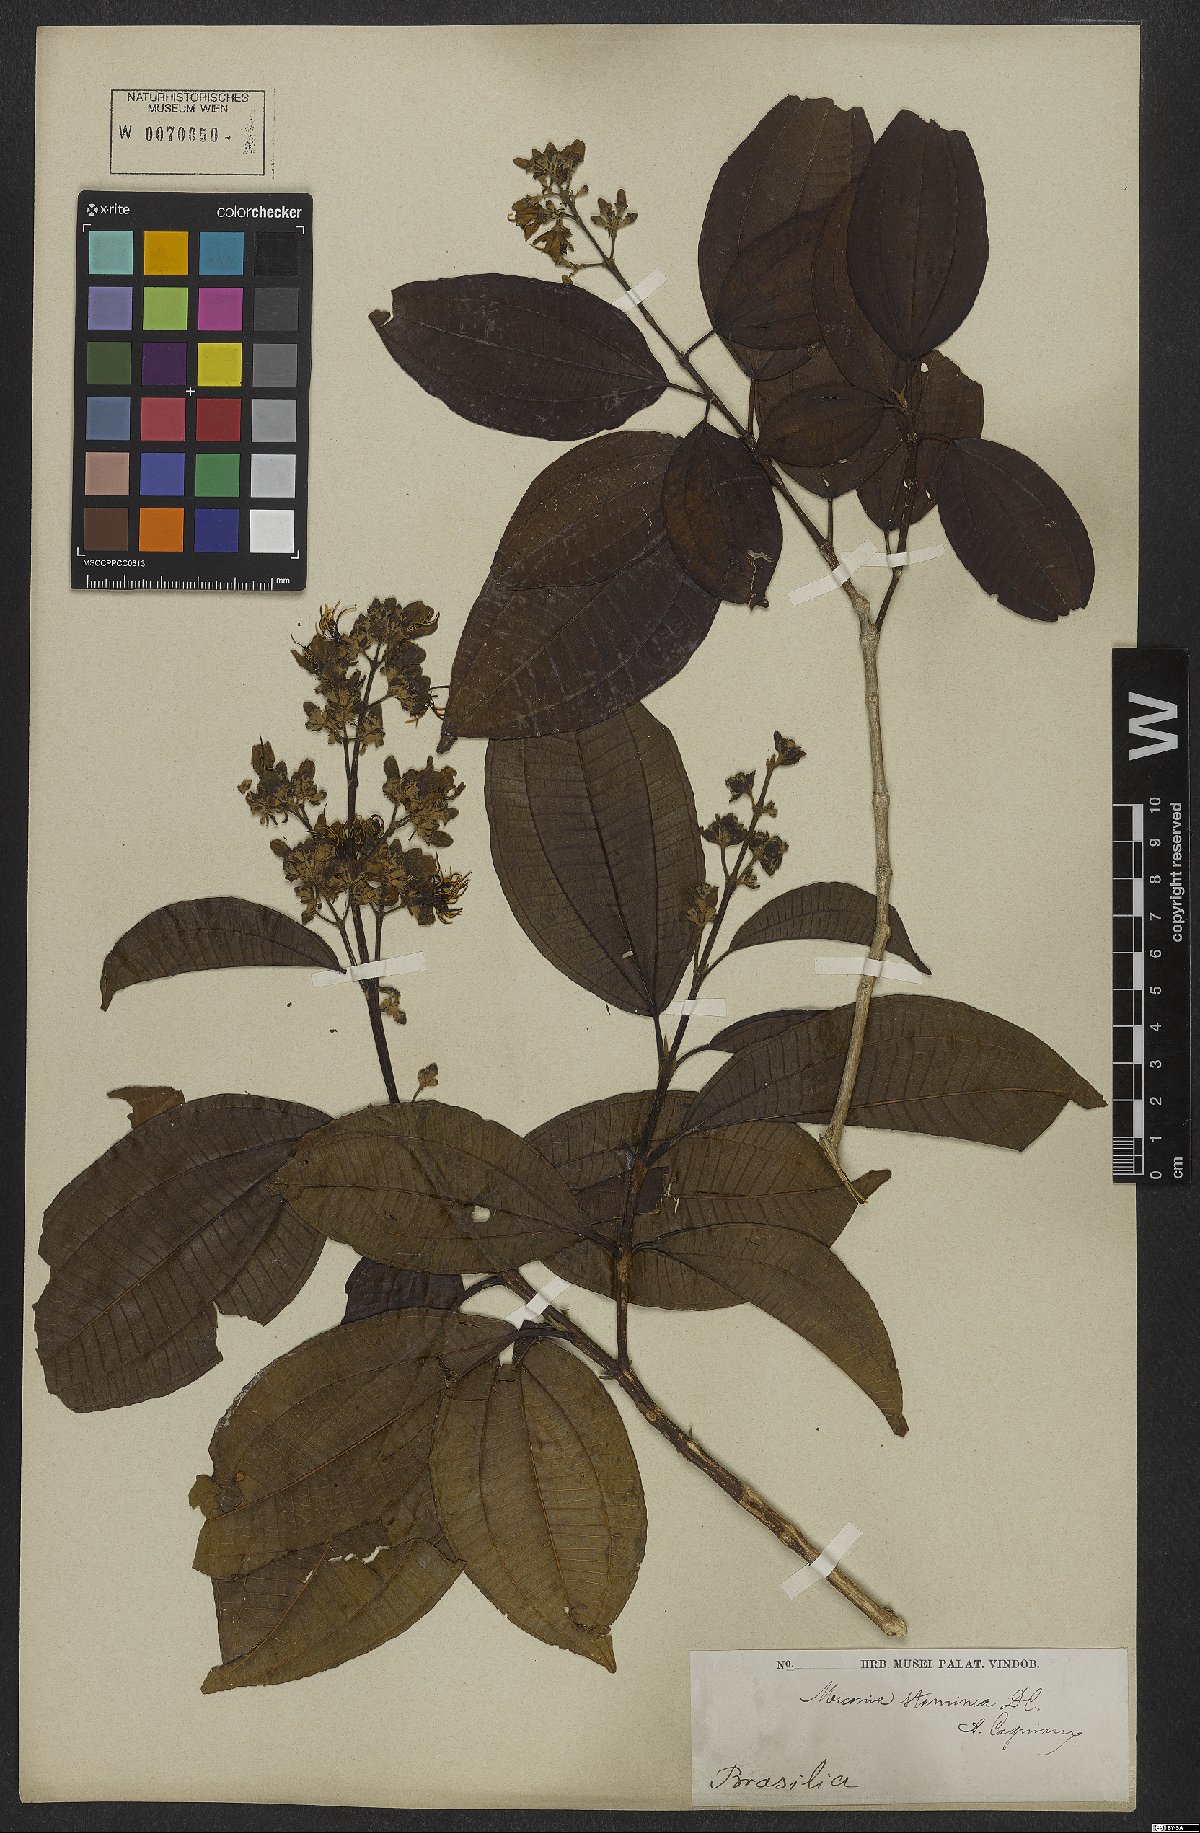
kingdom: Plantae
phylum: Tracheophyta
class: Magnoliopsida
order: Myrtales
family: Melastomataceae
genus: Miconia
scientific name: Miconia staminea
